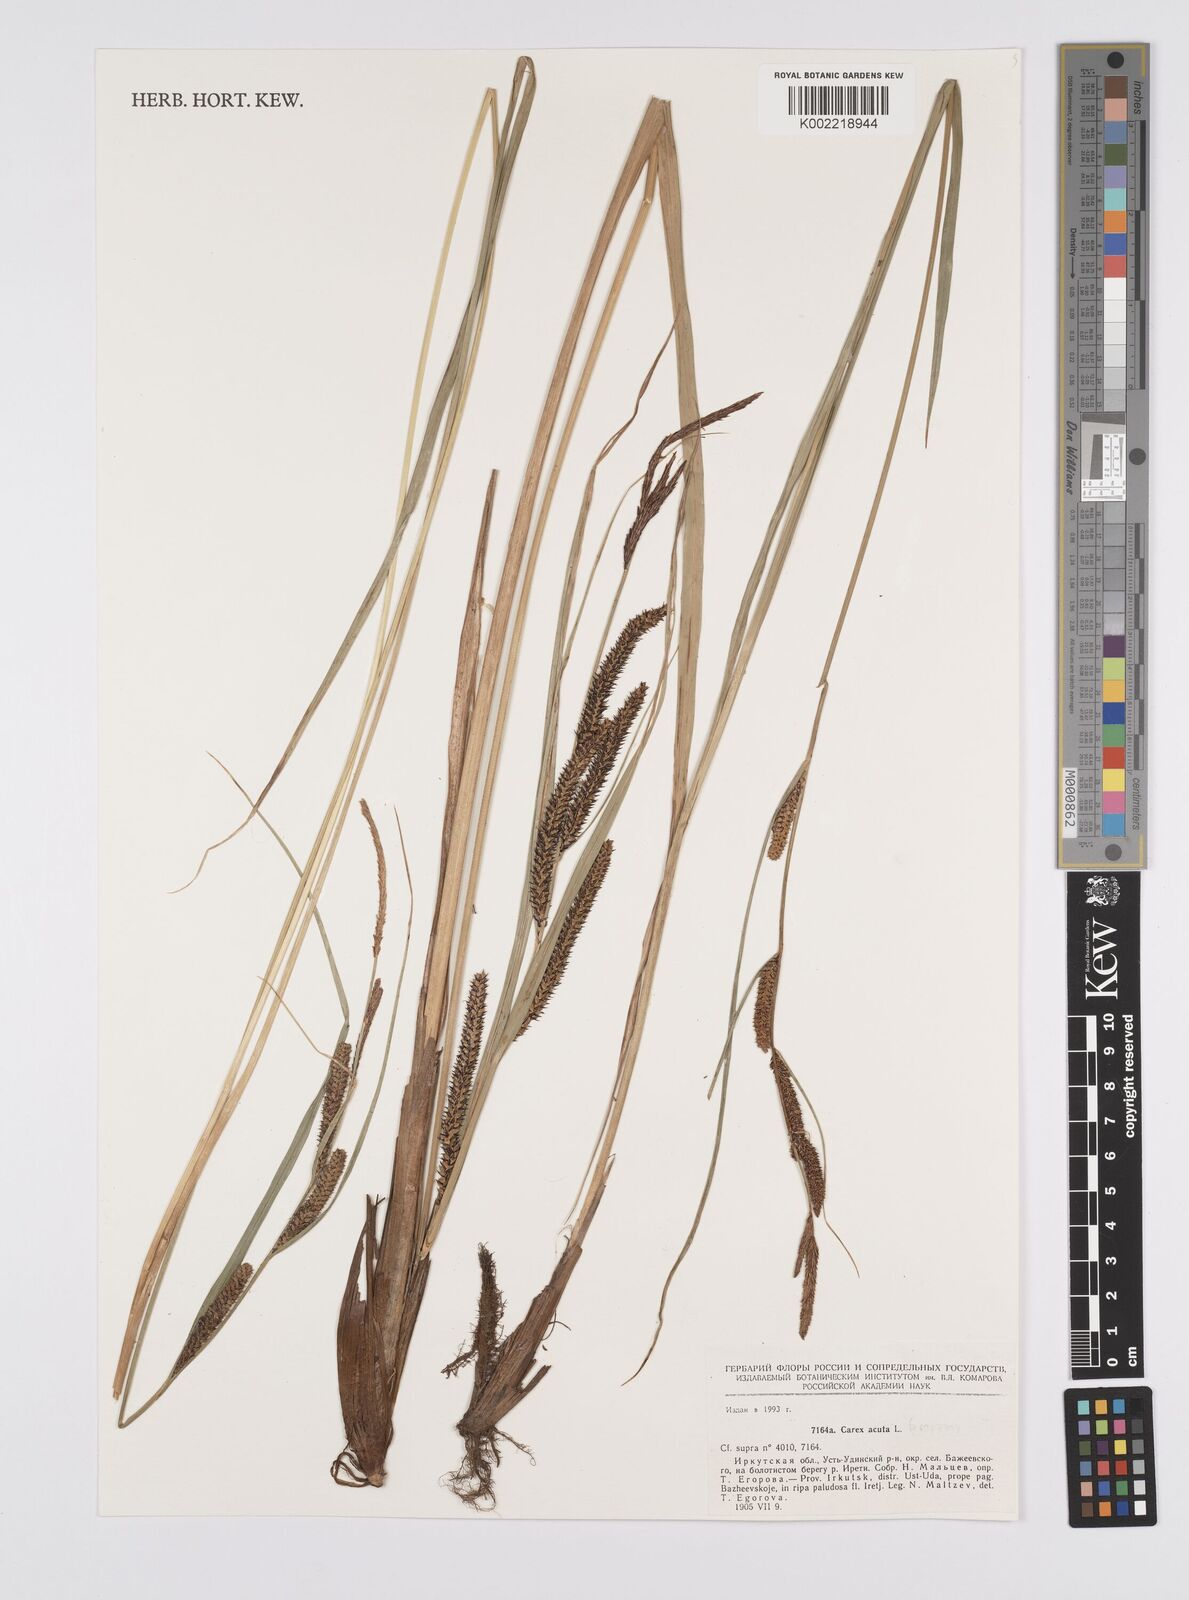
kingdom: Plantae
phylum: Tracheophyta
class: Liliopsida
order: Poales
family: Cyperaceae
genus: Carex
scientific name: Carex acutiformis
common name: Lesser pond-sedge
